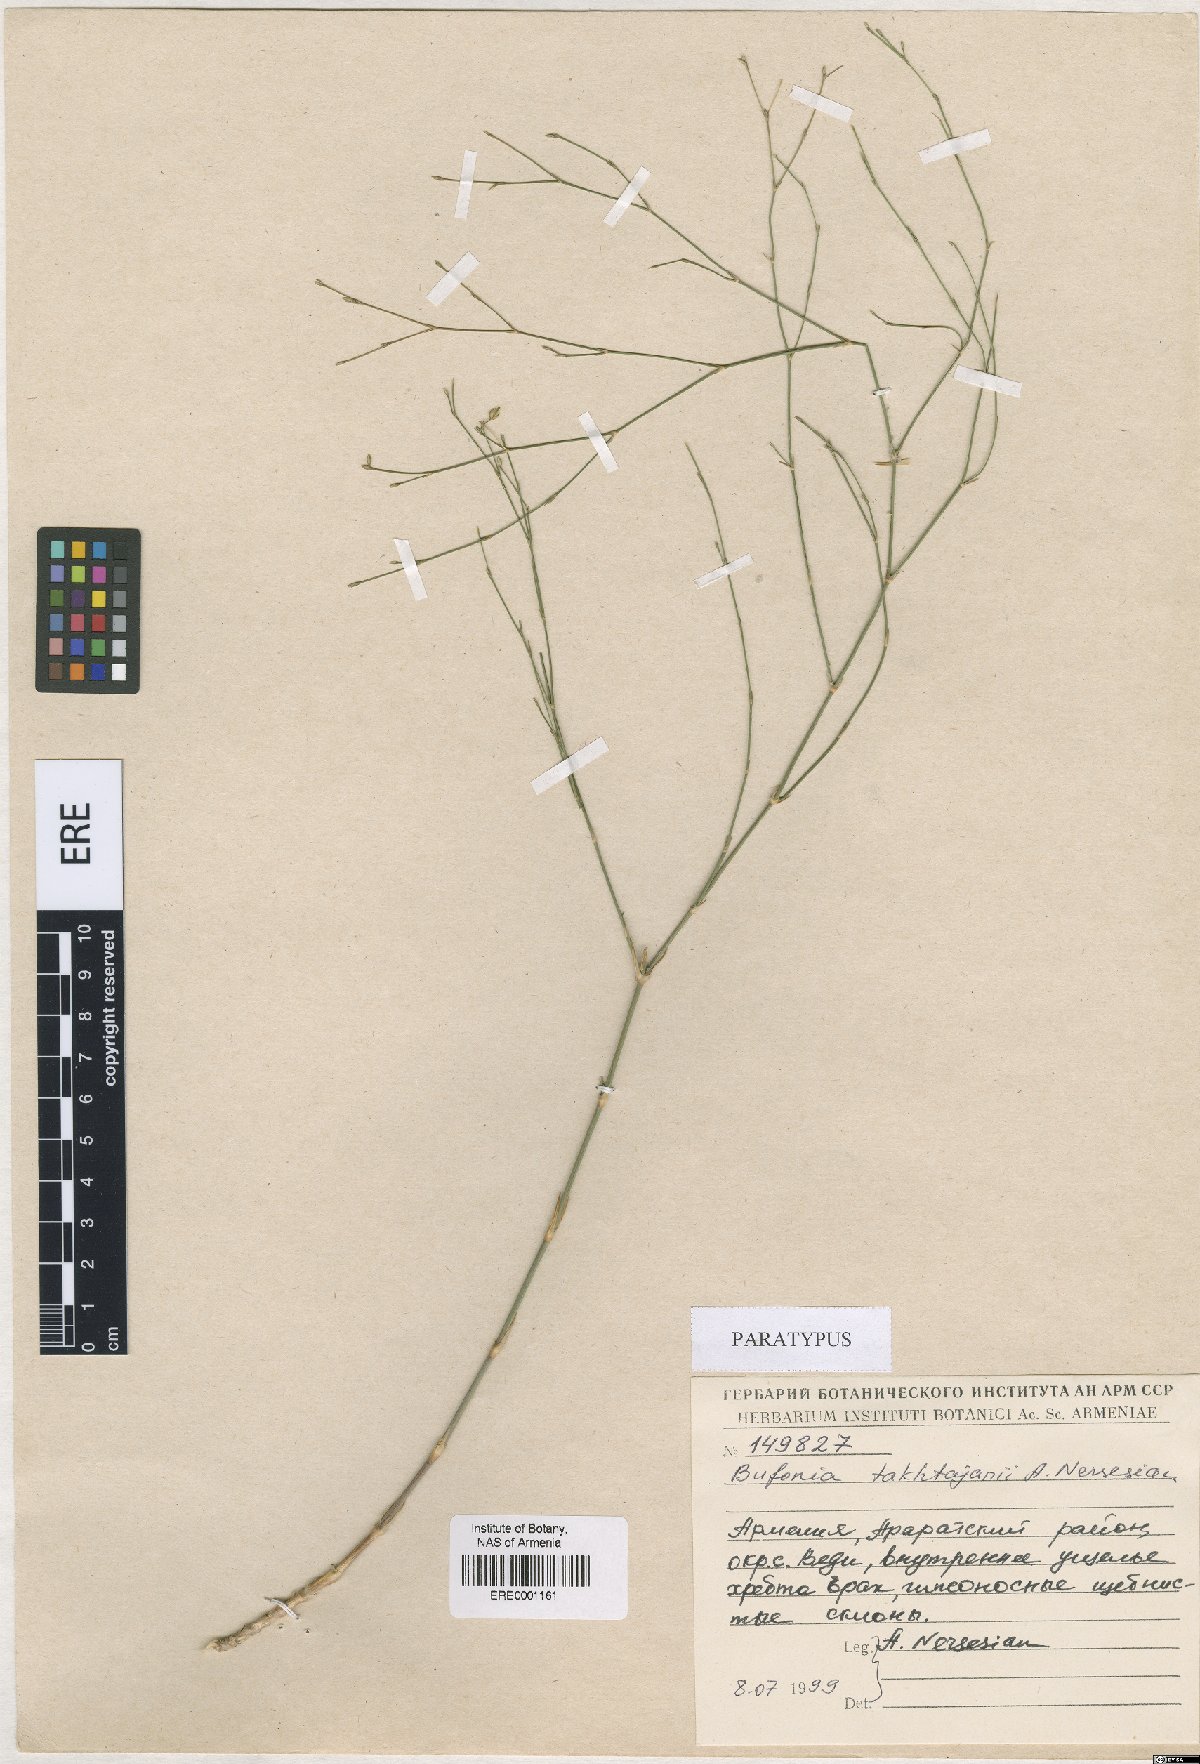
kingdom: Plantae
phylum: Tracheophyta
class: Magnoliopsida
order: Caryophyllales
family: Caryophyllaceae
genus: Bufonia
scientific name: Bufonia takhtajanii
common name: Takhtadjyan's bufonia
